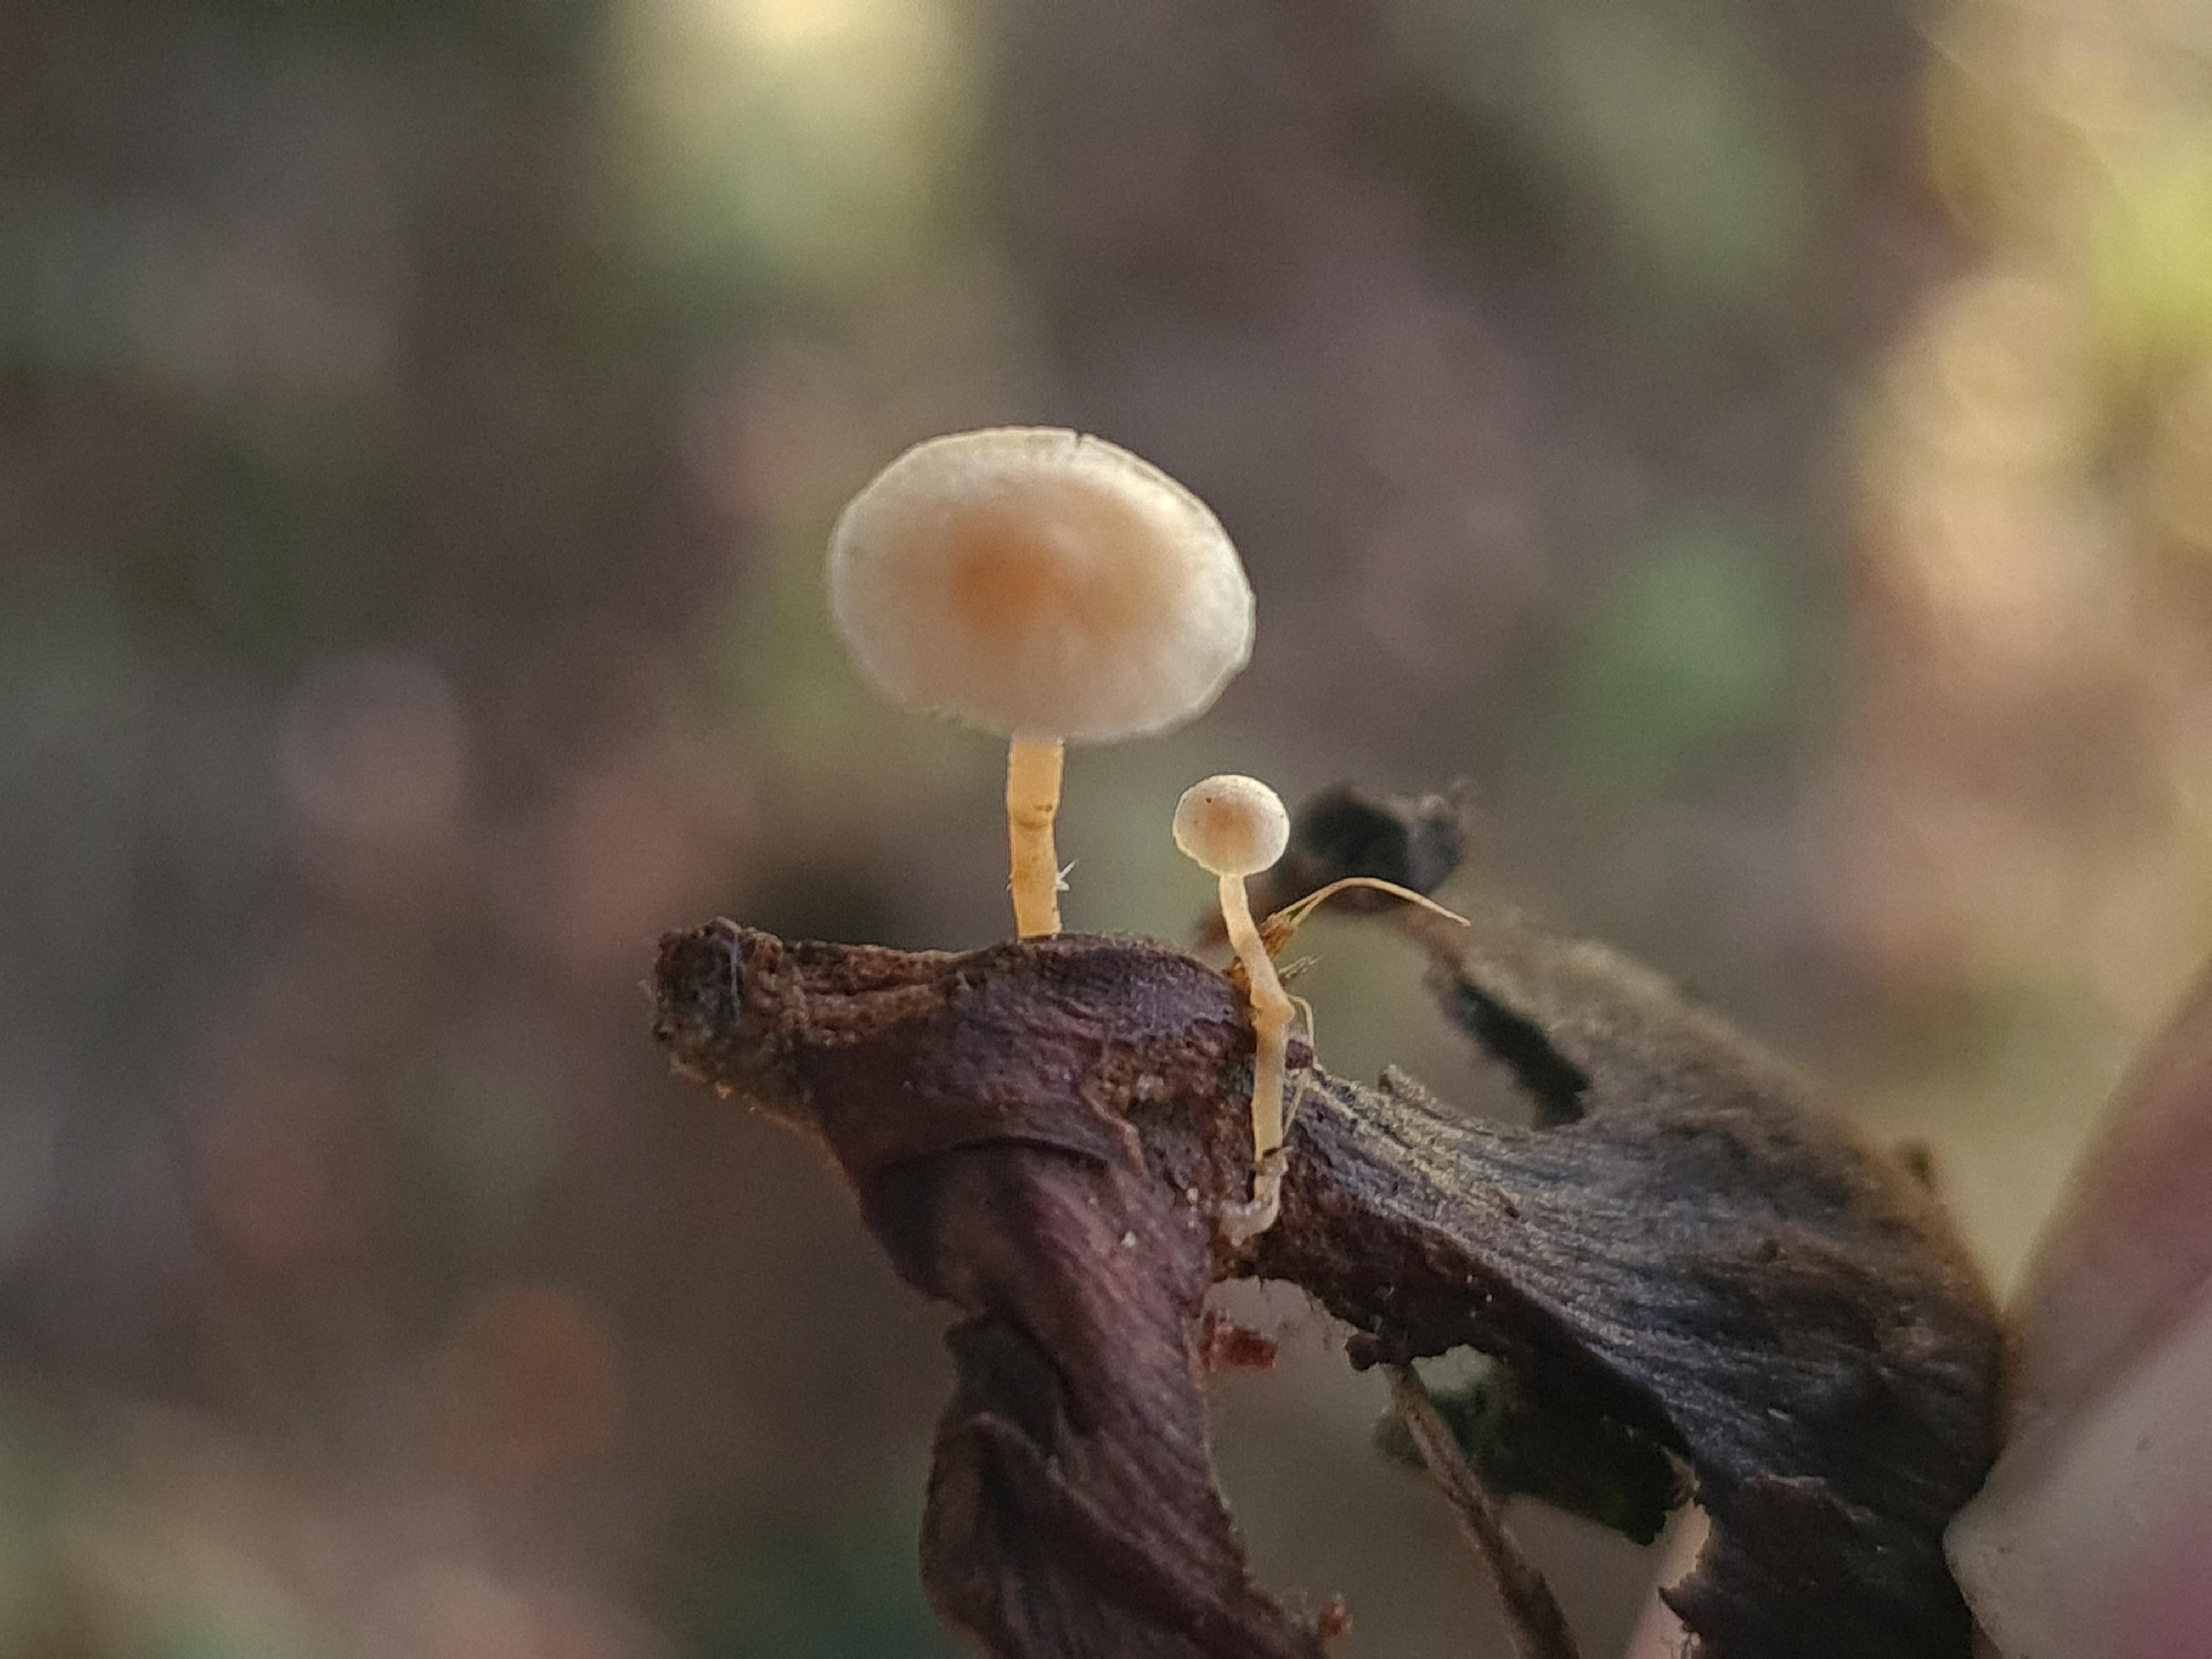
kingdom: Fungi
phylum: Basidiomycota
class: Agaricomycetes
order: Agaricales
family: Marasmiaceae
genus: Baeospora
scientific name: Baeospora myosura
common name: koglebruskhat
